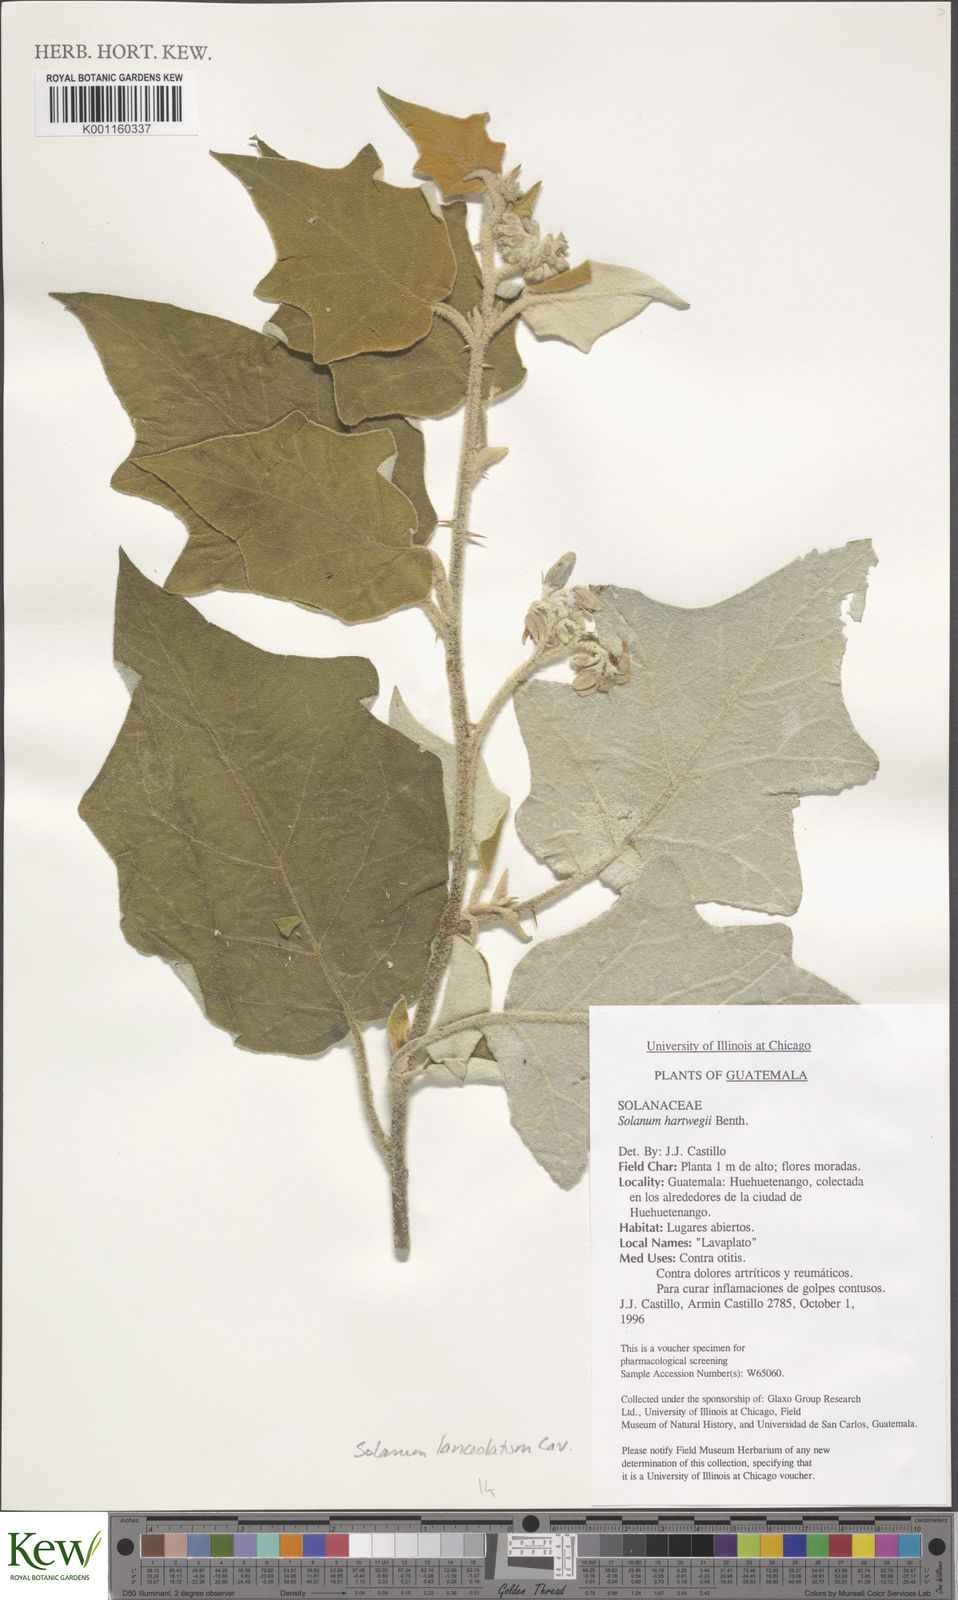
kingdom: Plantae
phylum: Tracheophyta
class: Magnoliopsida
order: Solanales
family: Solanaceae
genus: Solanum
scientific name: Solanum lanceolatum
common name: Orangeberry nightshade
